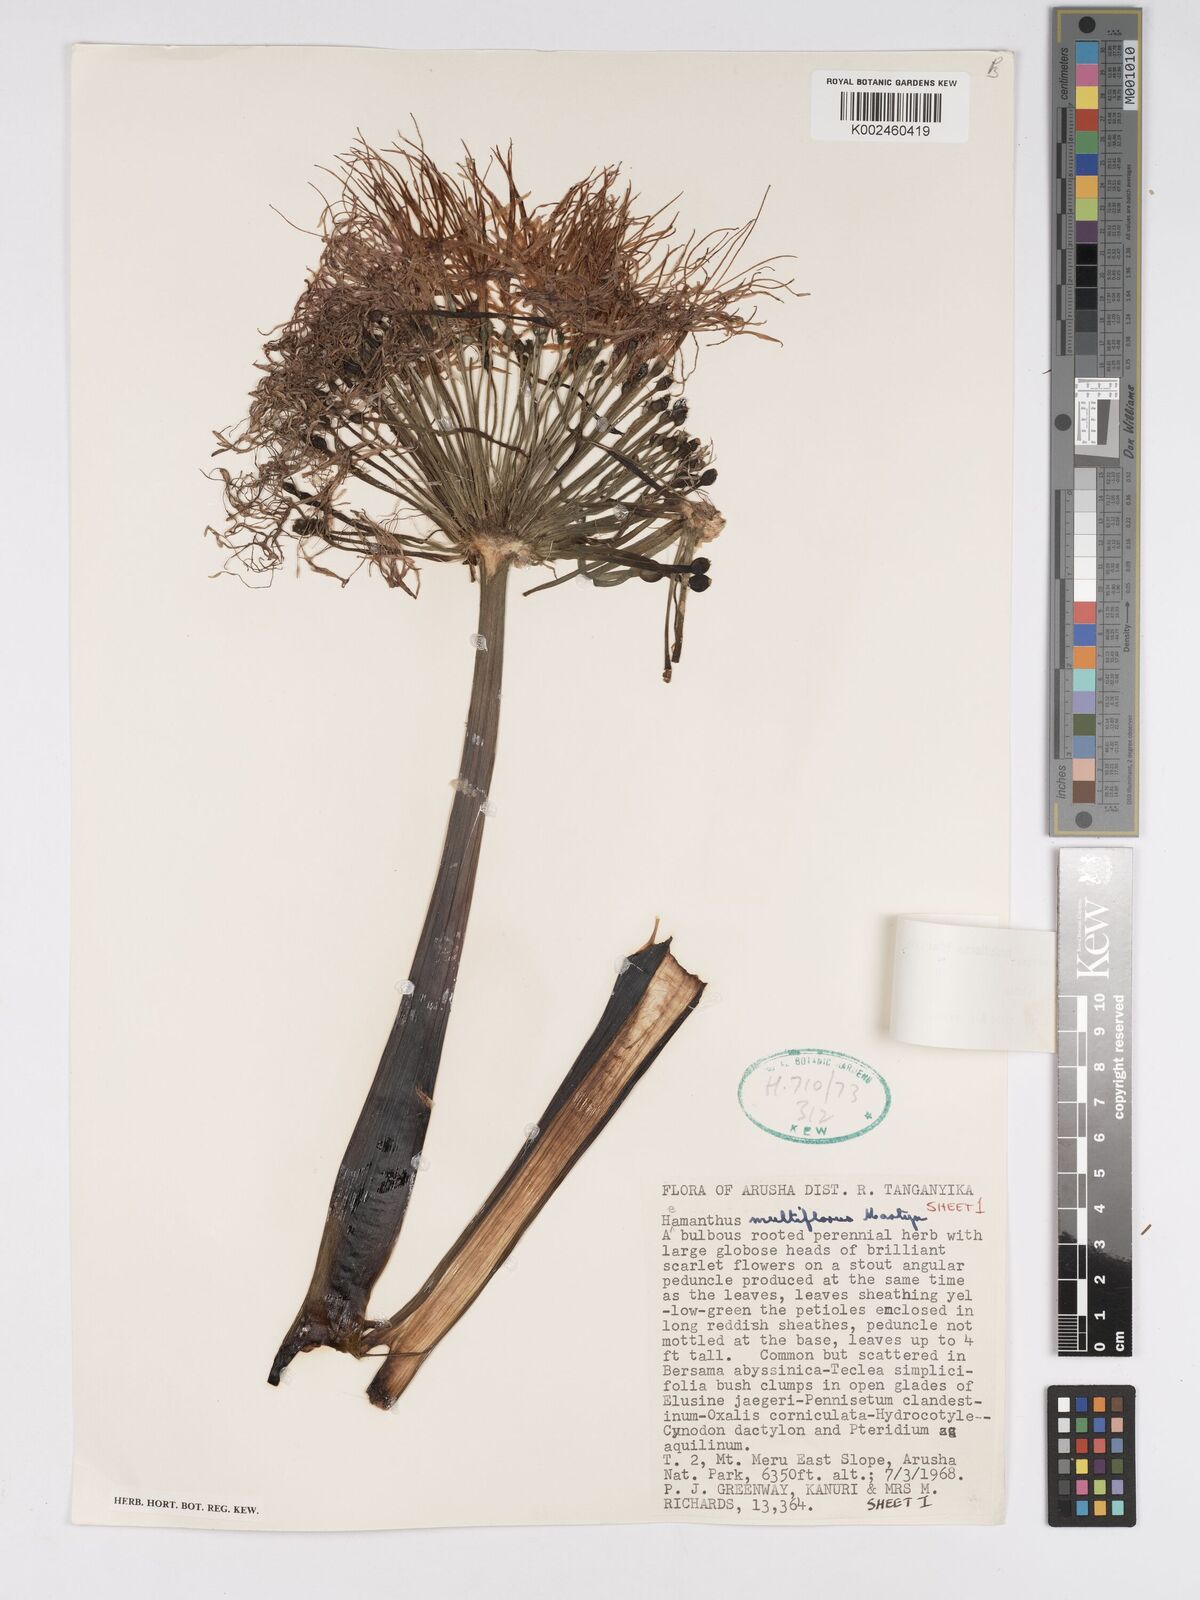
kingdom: Plantae
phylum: Tracheophyta
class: Liliopsida
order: Asparagales
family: Amaryllidaceae
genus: Scadoxus
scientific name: Scadoxus multiflorus
